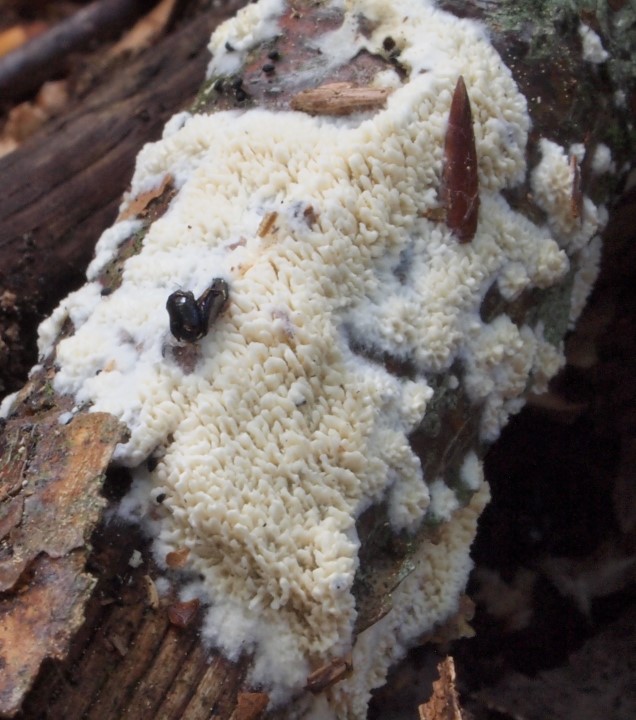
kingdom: Fungi
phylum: Basidiomycota
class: Agaricomycetes
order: Hymenochaetales
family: Schizoporaceae
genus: Xylodon
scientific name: Xylodon subtropicus
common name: labyrint-tandsvamp
